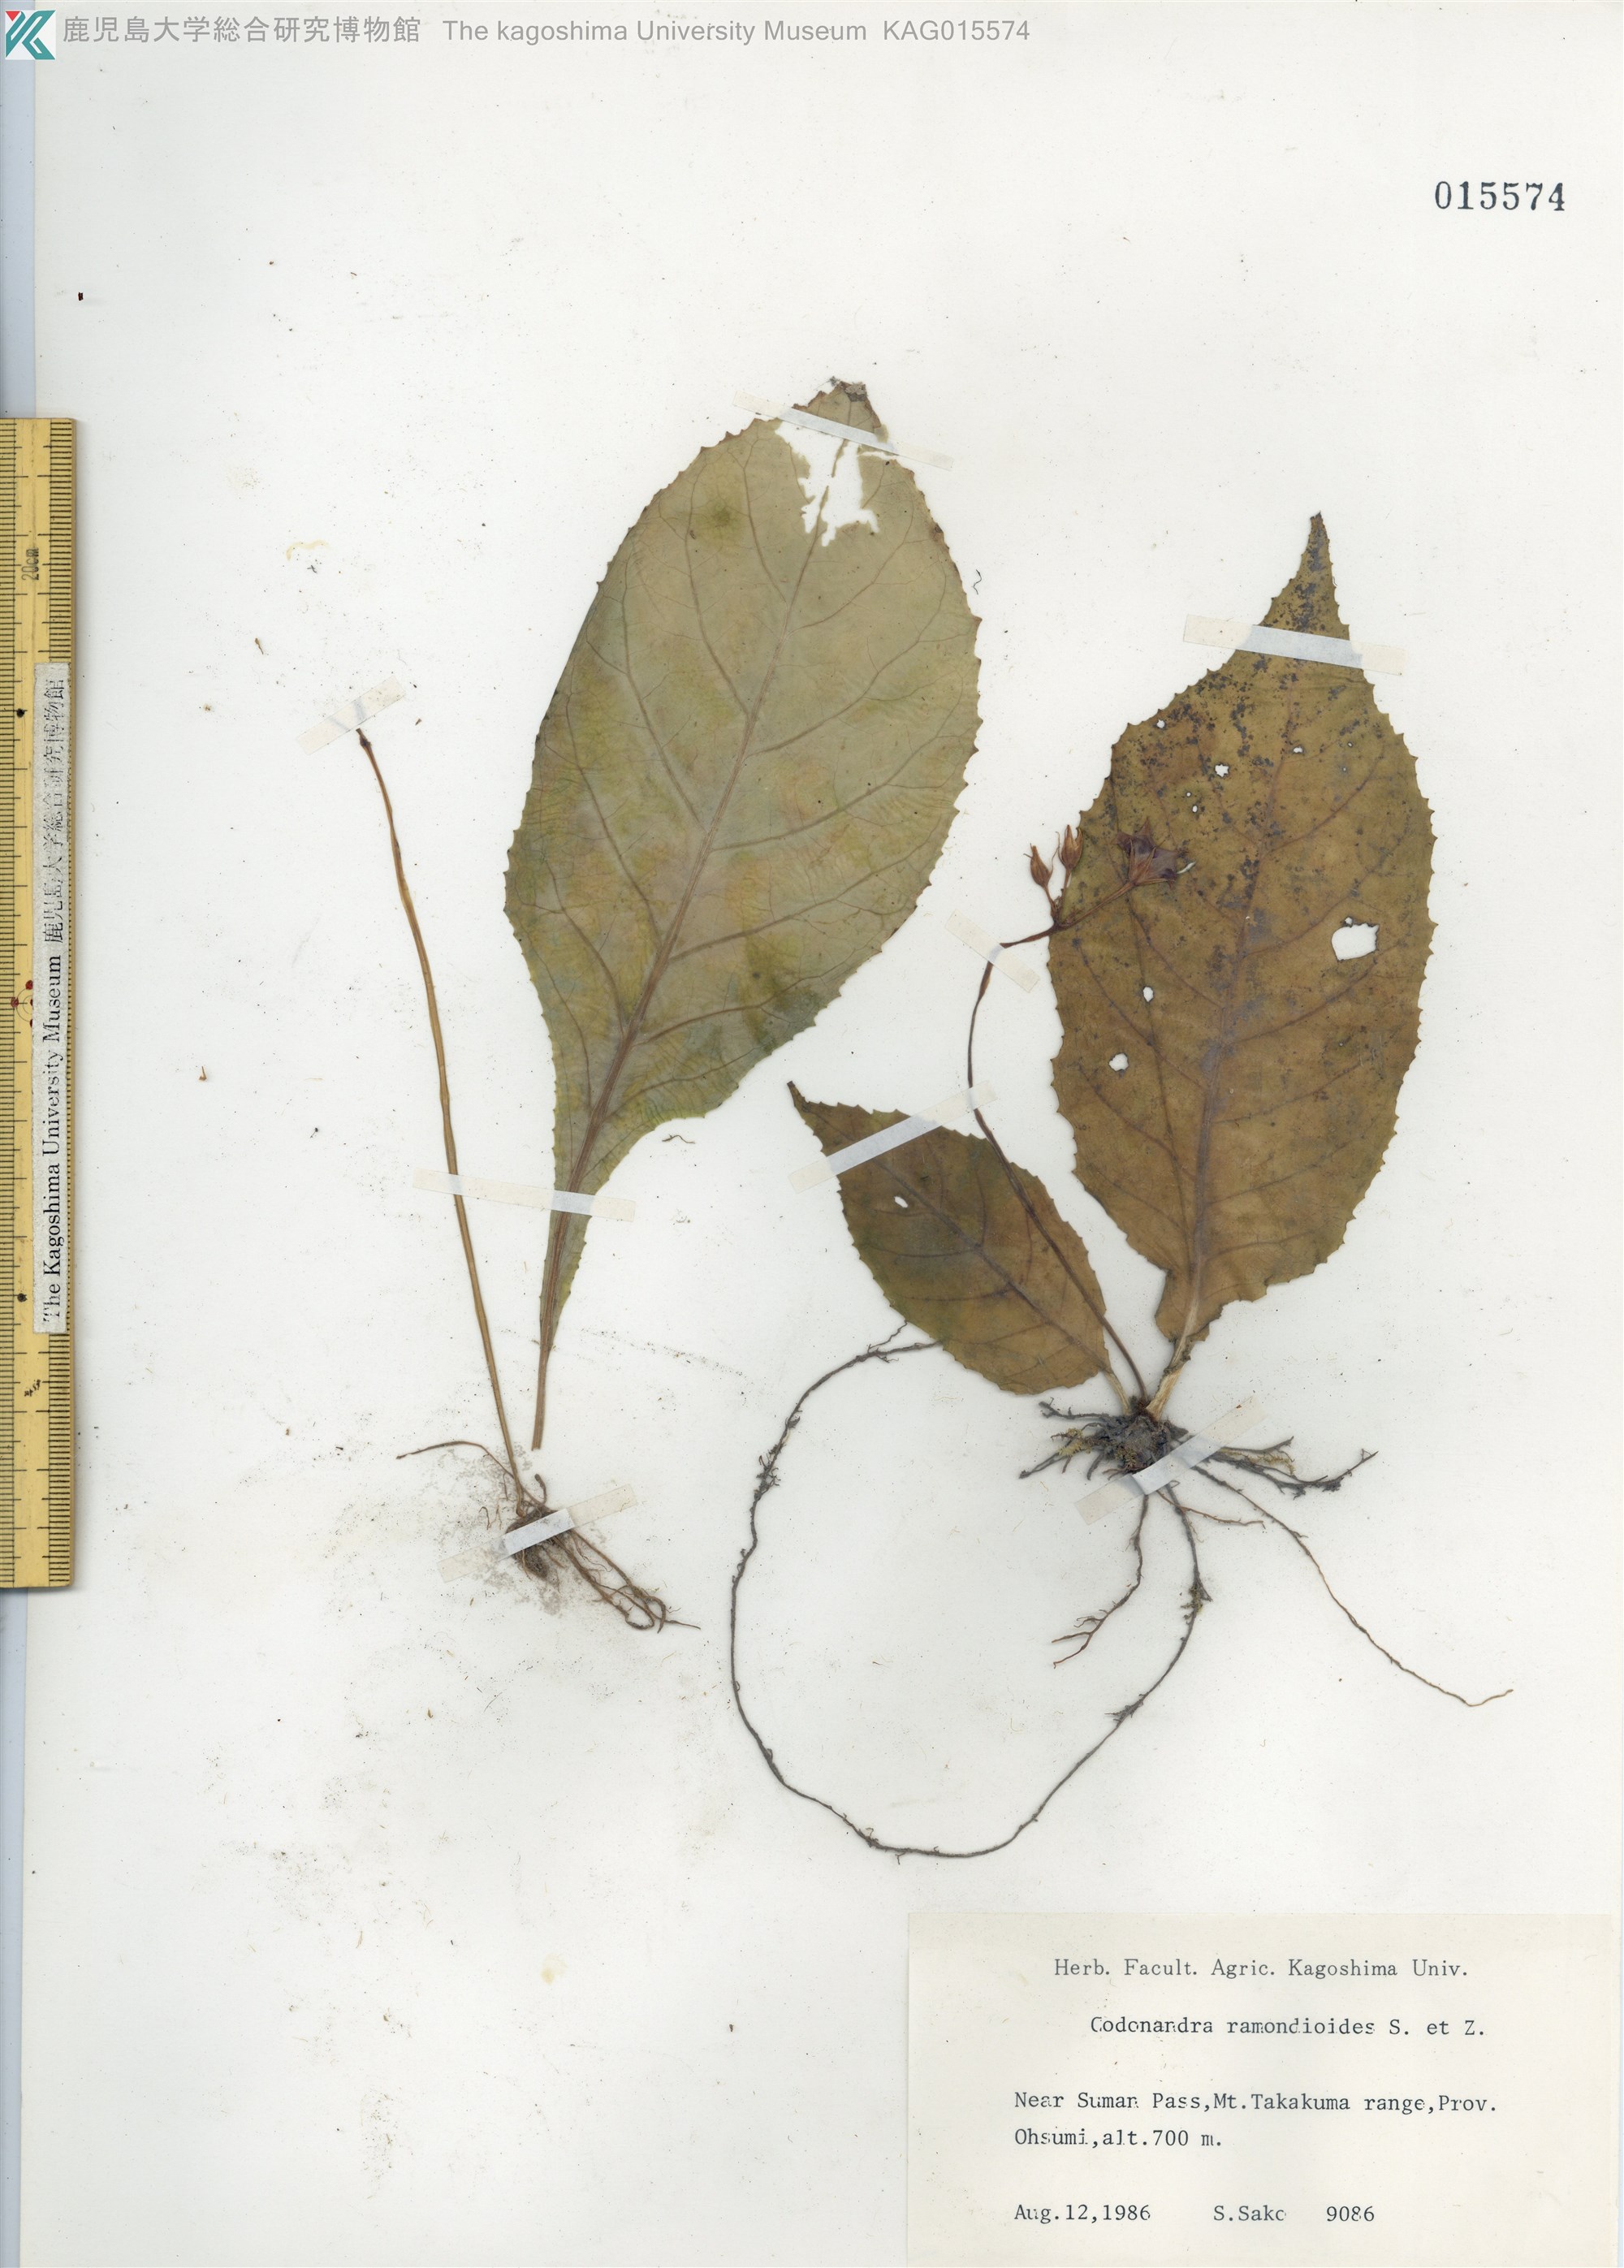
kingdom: Plantae
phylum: Tracheophyta
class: Magnoliopsida
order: Lamiales
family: Gesneriaceae
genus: Conandron
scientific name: Conandron ramondioides
